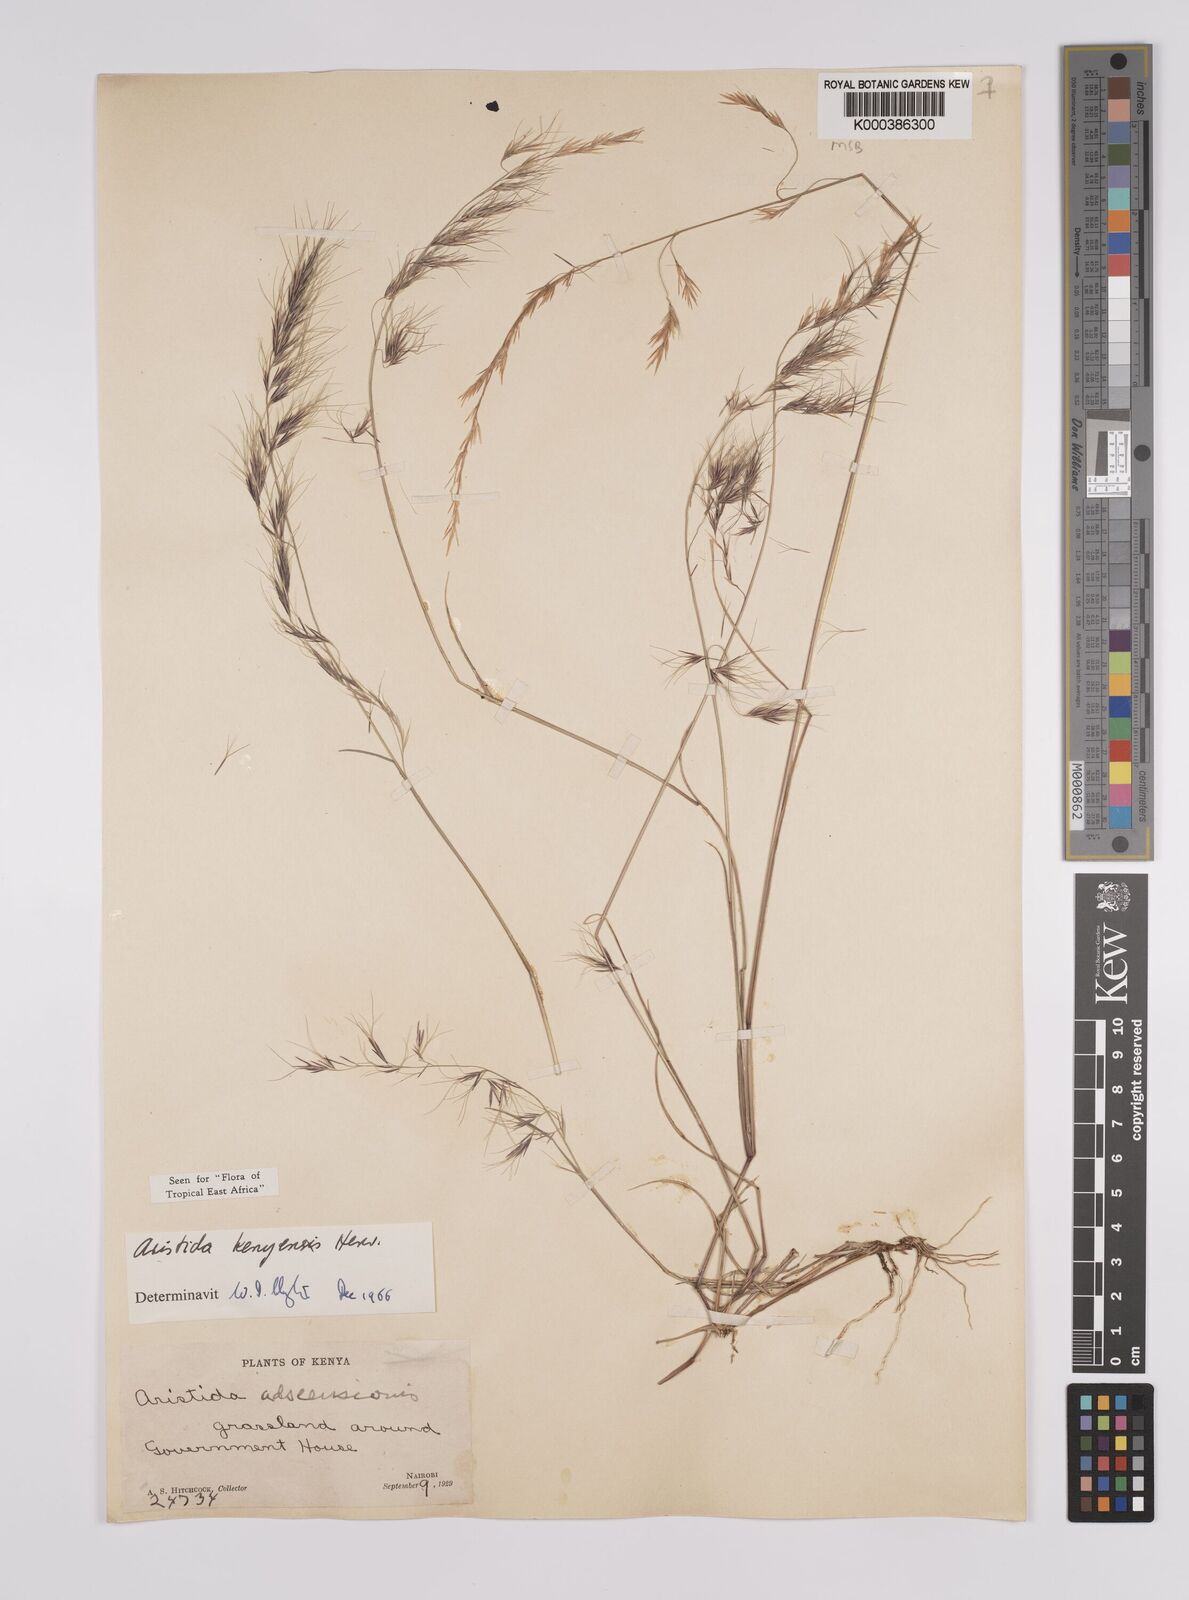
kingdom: Plantae
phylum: Tracheophyta
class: Liliopsida
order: Poales
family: Poaceae
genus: Aristida
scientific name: Aristida kenyensis
